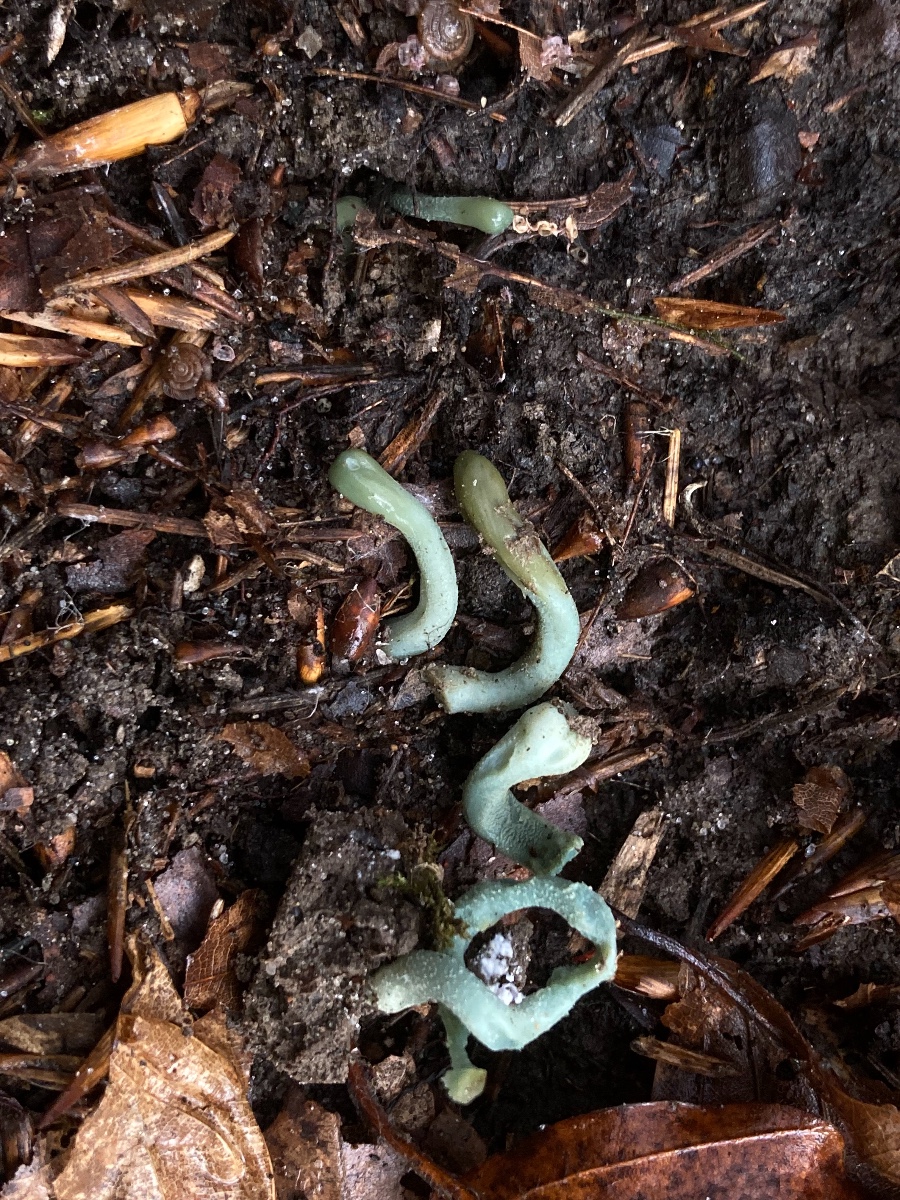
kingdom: Fungi
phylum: Ascomycota
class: Leotiomycetes
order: Leotiales
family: Leotiaceae
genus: Microglossum
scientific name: Microglossum griseoviride
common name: grågrøn farvetunge
